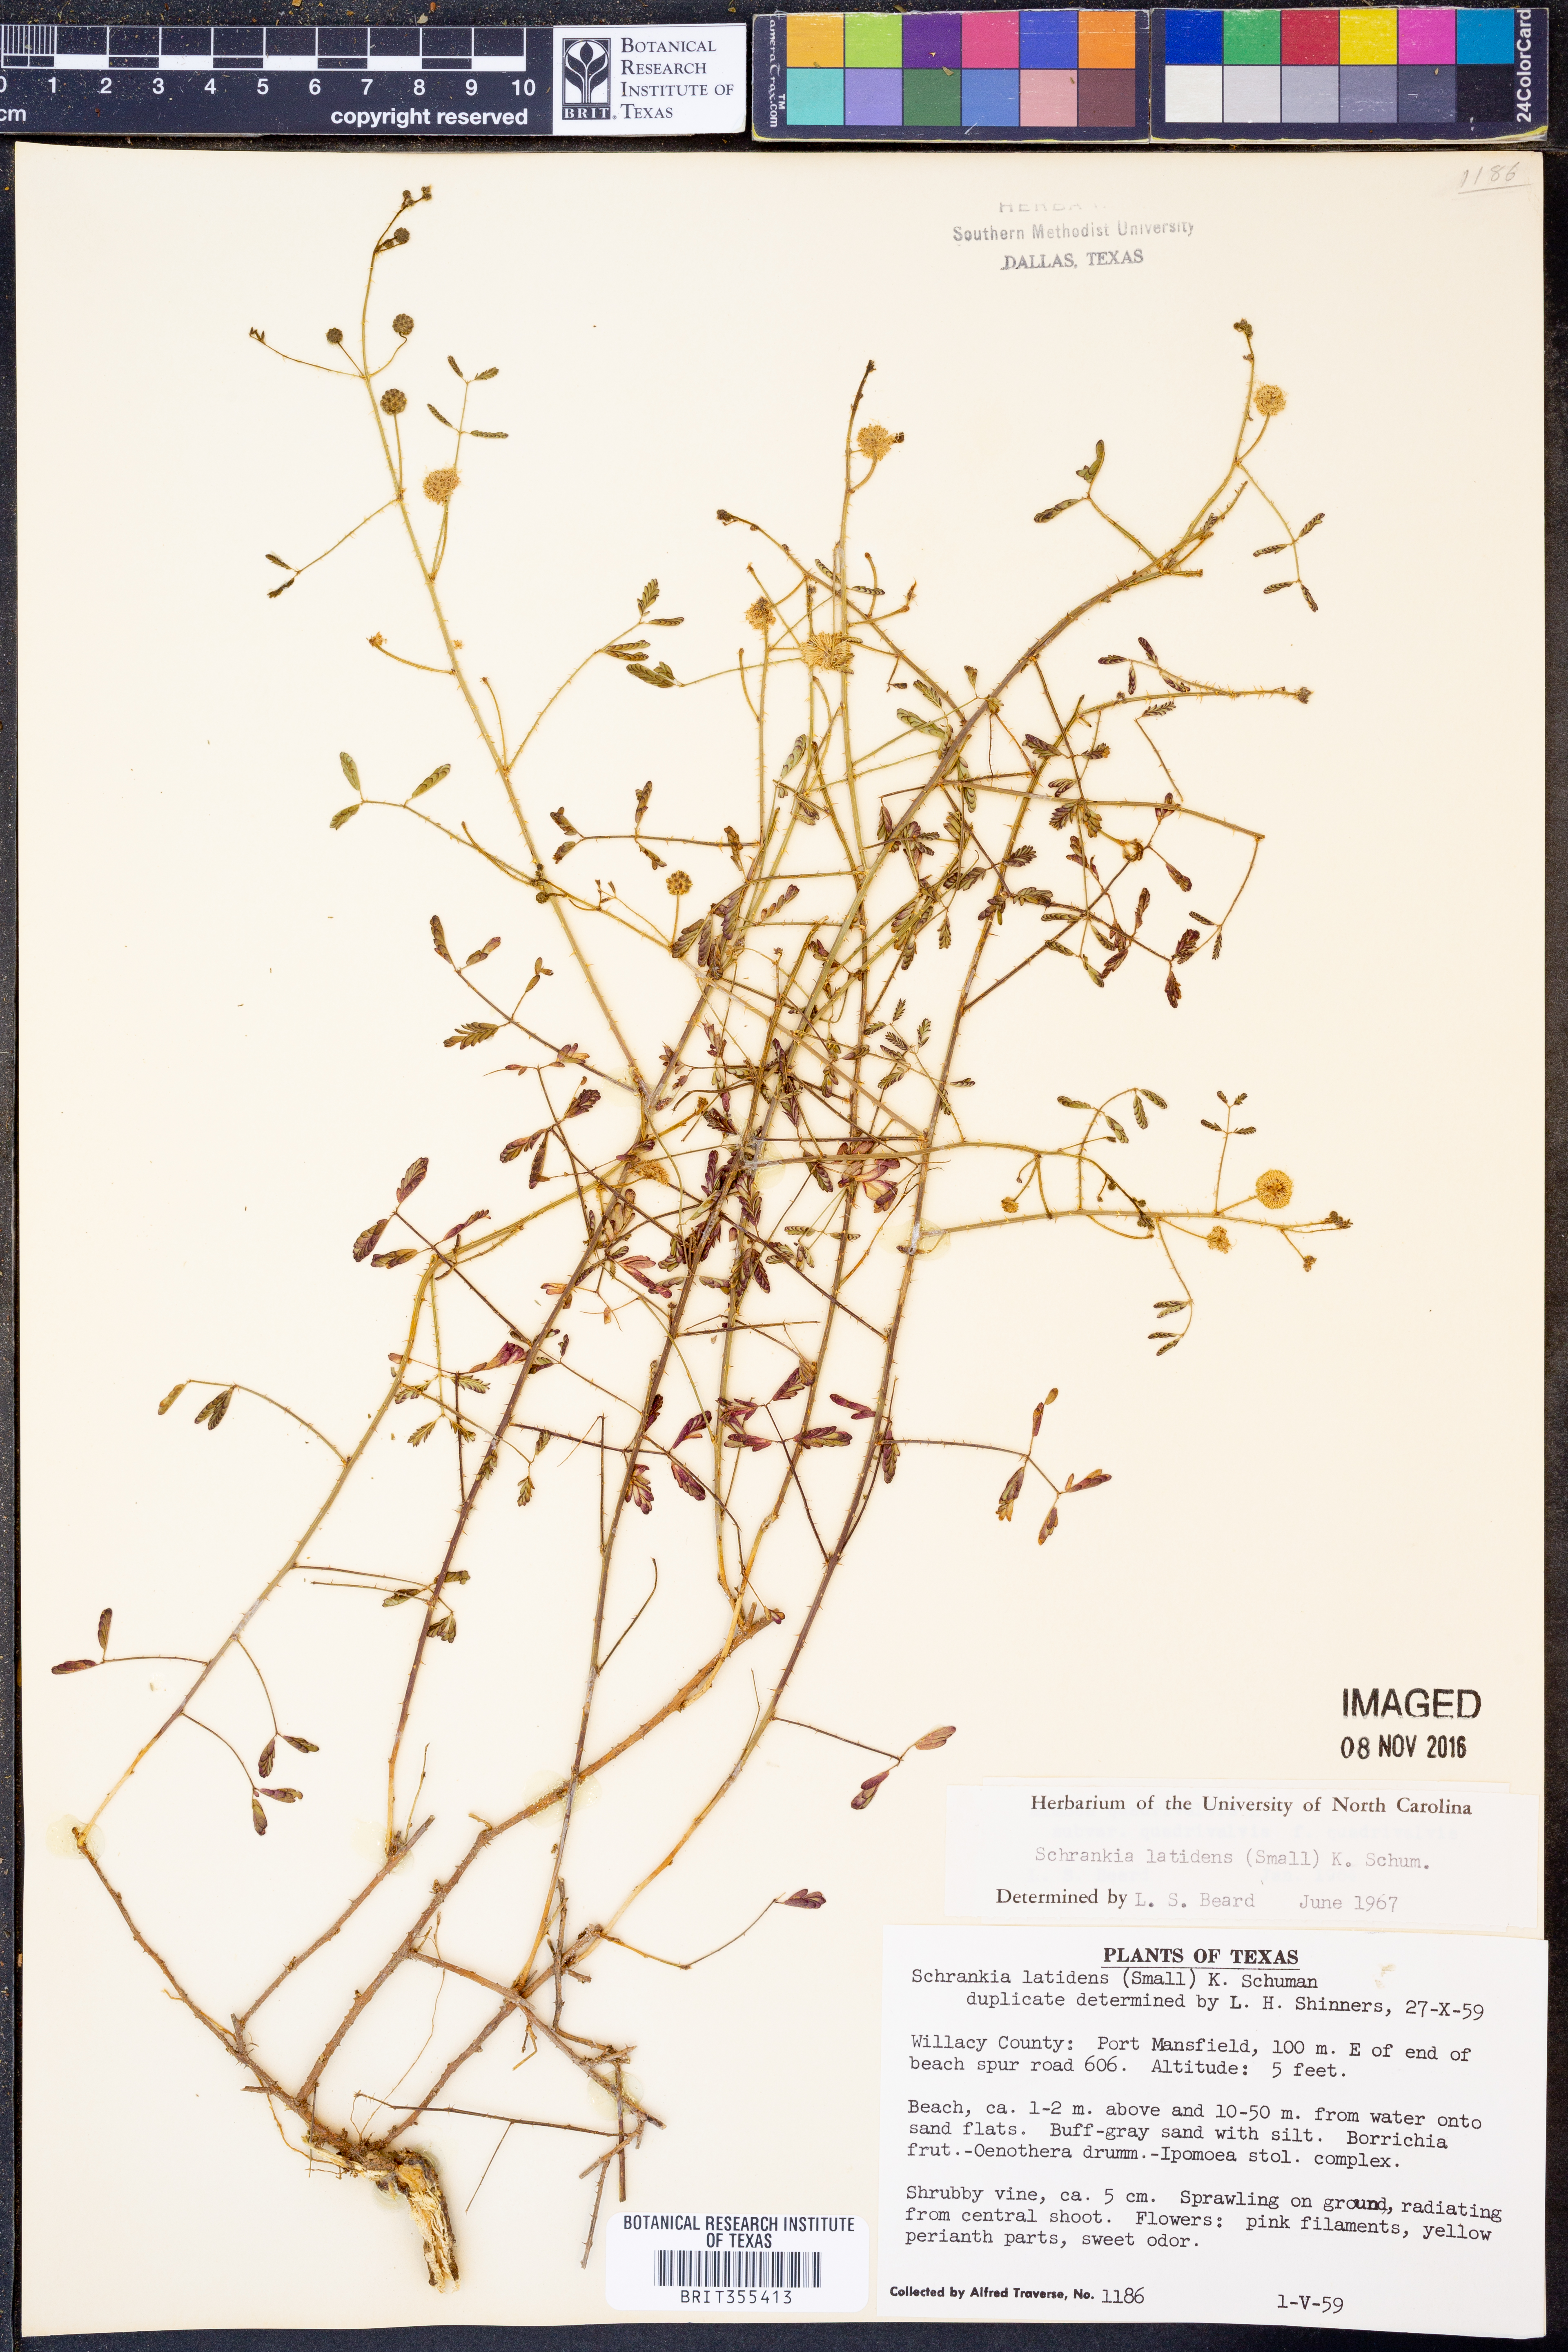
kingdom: Plantae
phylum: Tracheophyta
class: Magnoliopsida
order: Fabales
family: Fabaceae
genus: Mimosa
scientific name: Mimosa quadrivalvis
